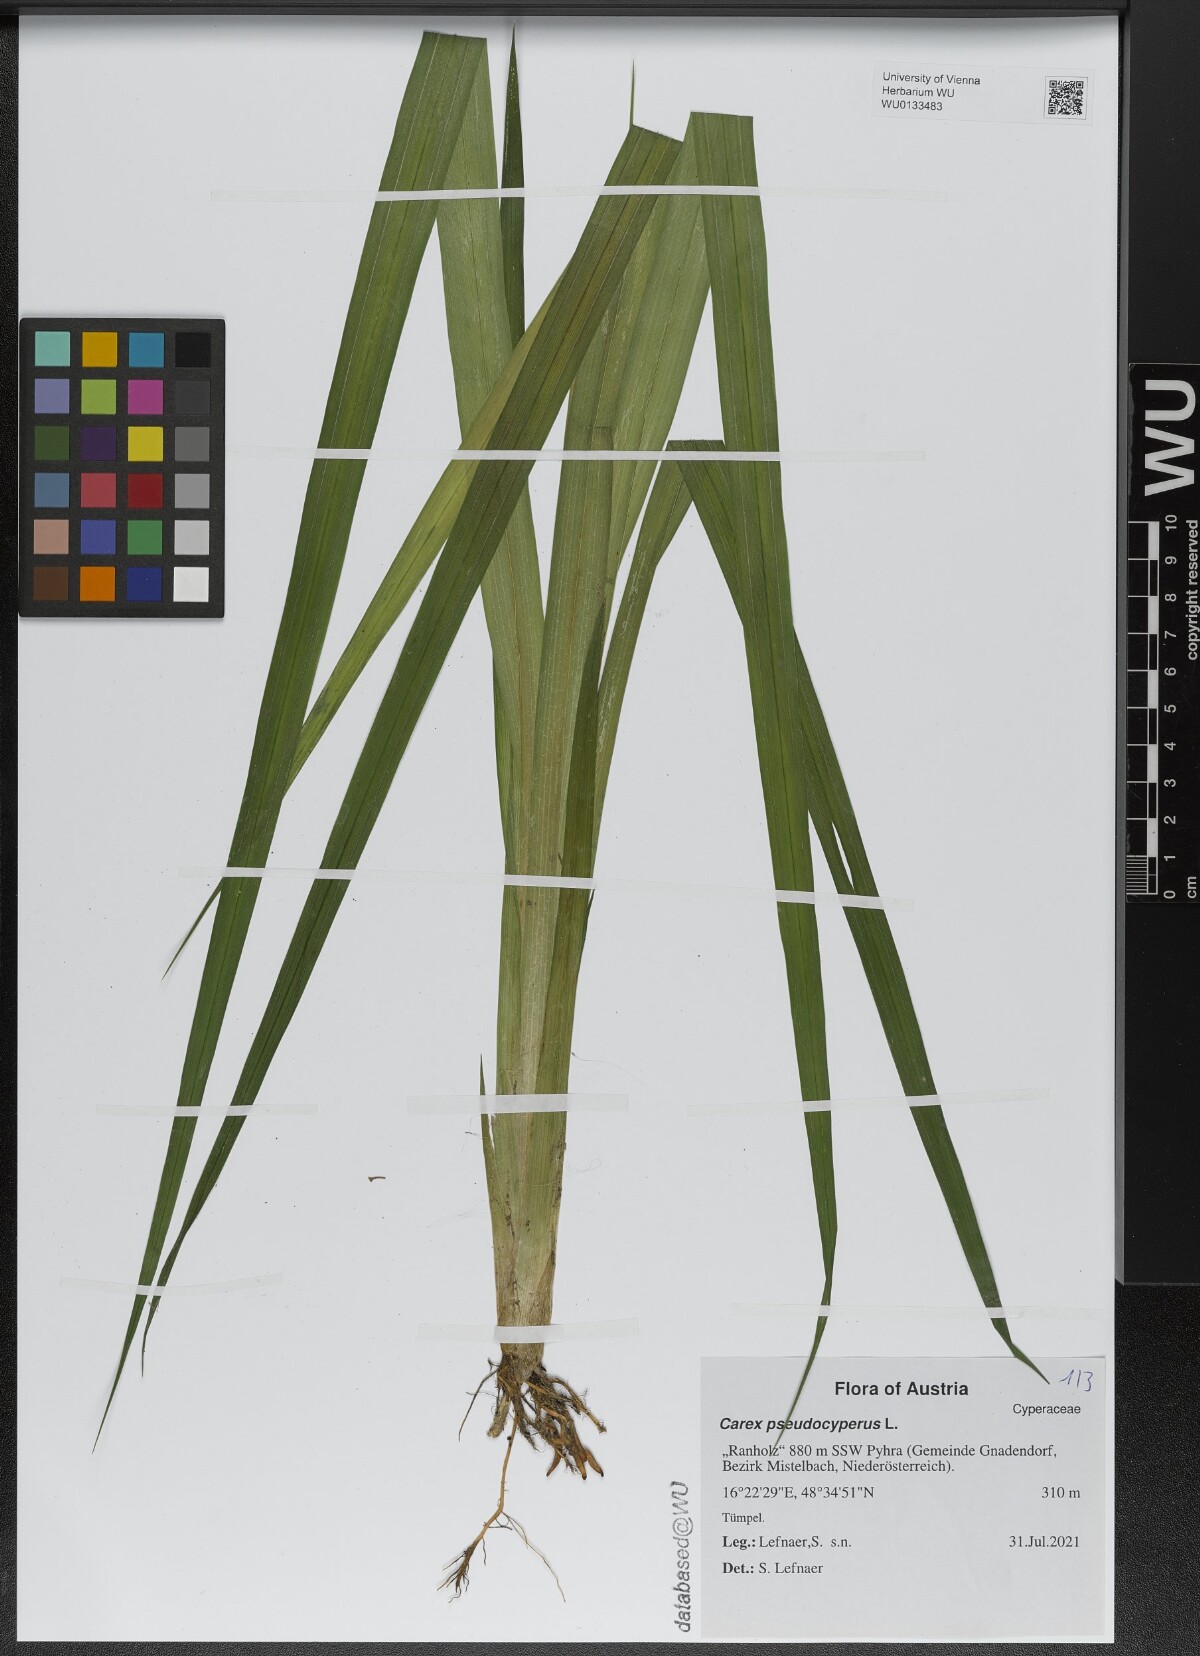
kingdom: Plantae
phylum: Tracheophyta
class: Liliopsida
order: Poales
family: Cyperaceae
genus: Carex
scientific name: Carex pseudocyperus
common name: Cyperus sedge
